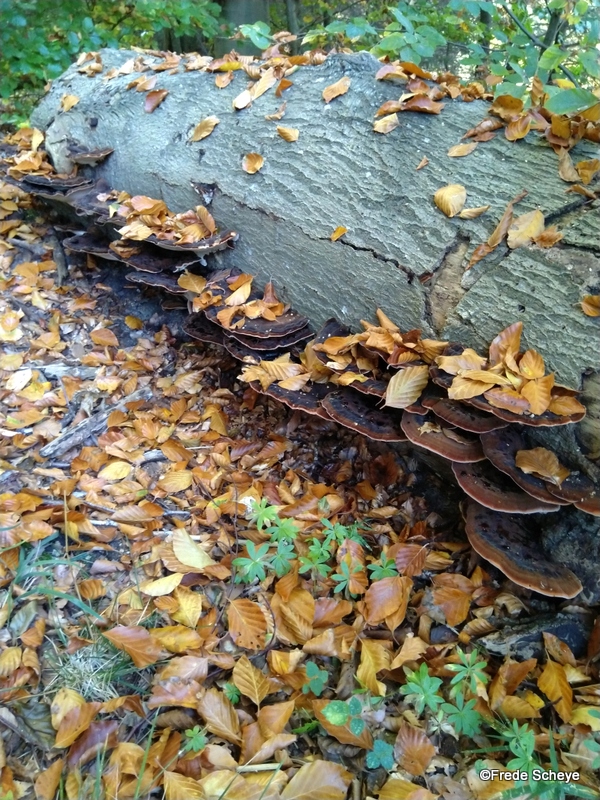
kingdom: Fungi
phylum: Basidiomycota
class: Agaricomycetes
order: Polyporales
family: Ischnodermataceae
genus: Ischnoderma
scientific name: Ischnoderma resinosum
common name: løv-tjæreporesvamp
